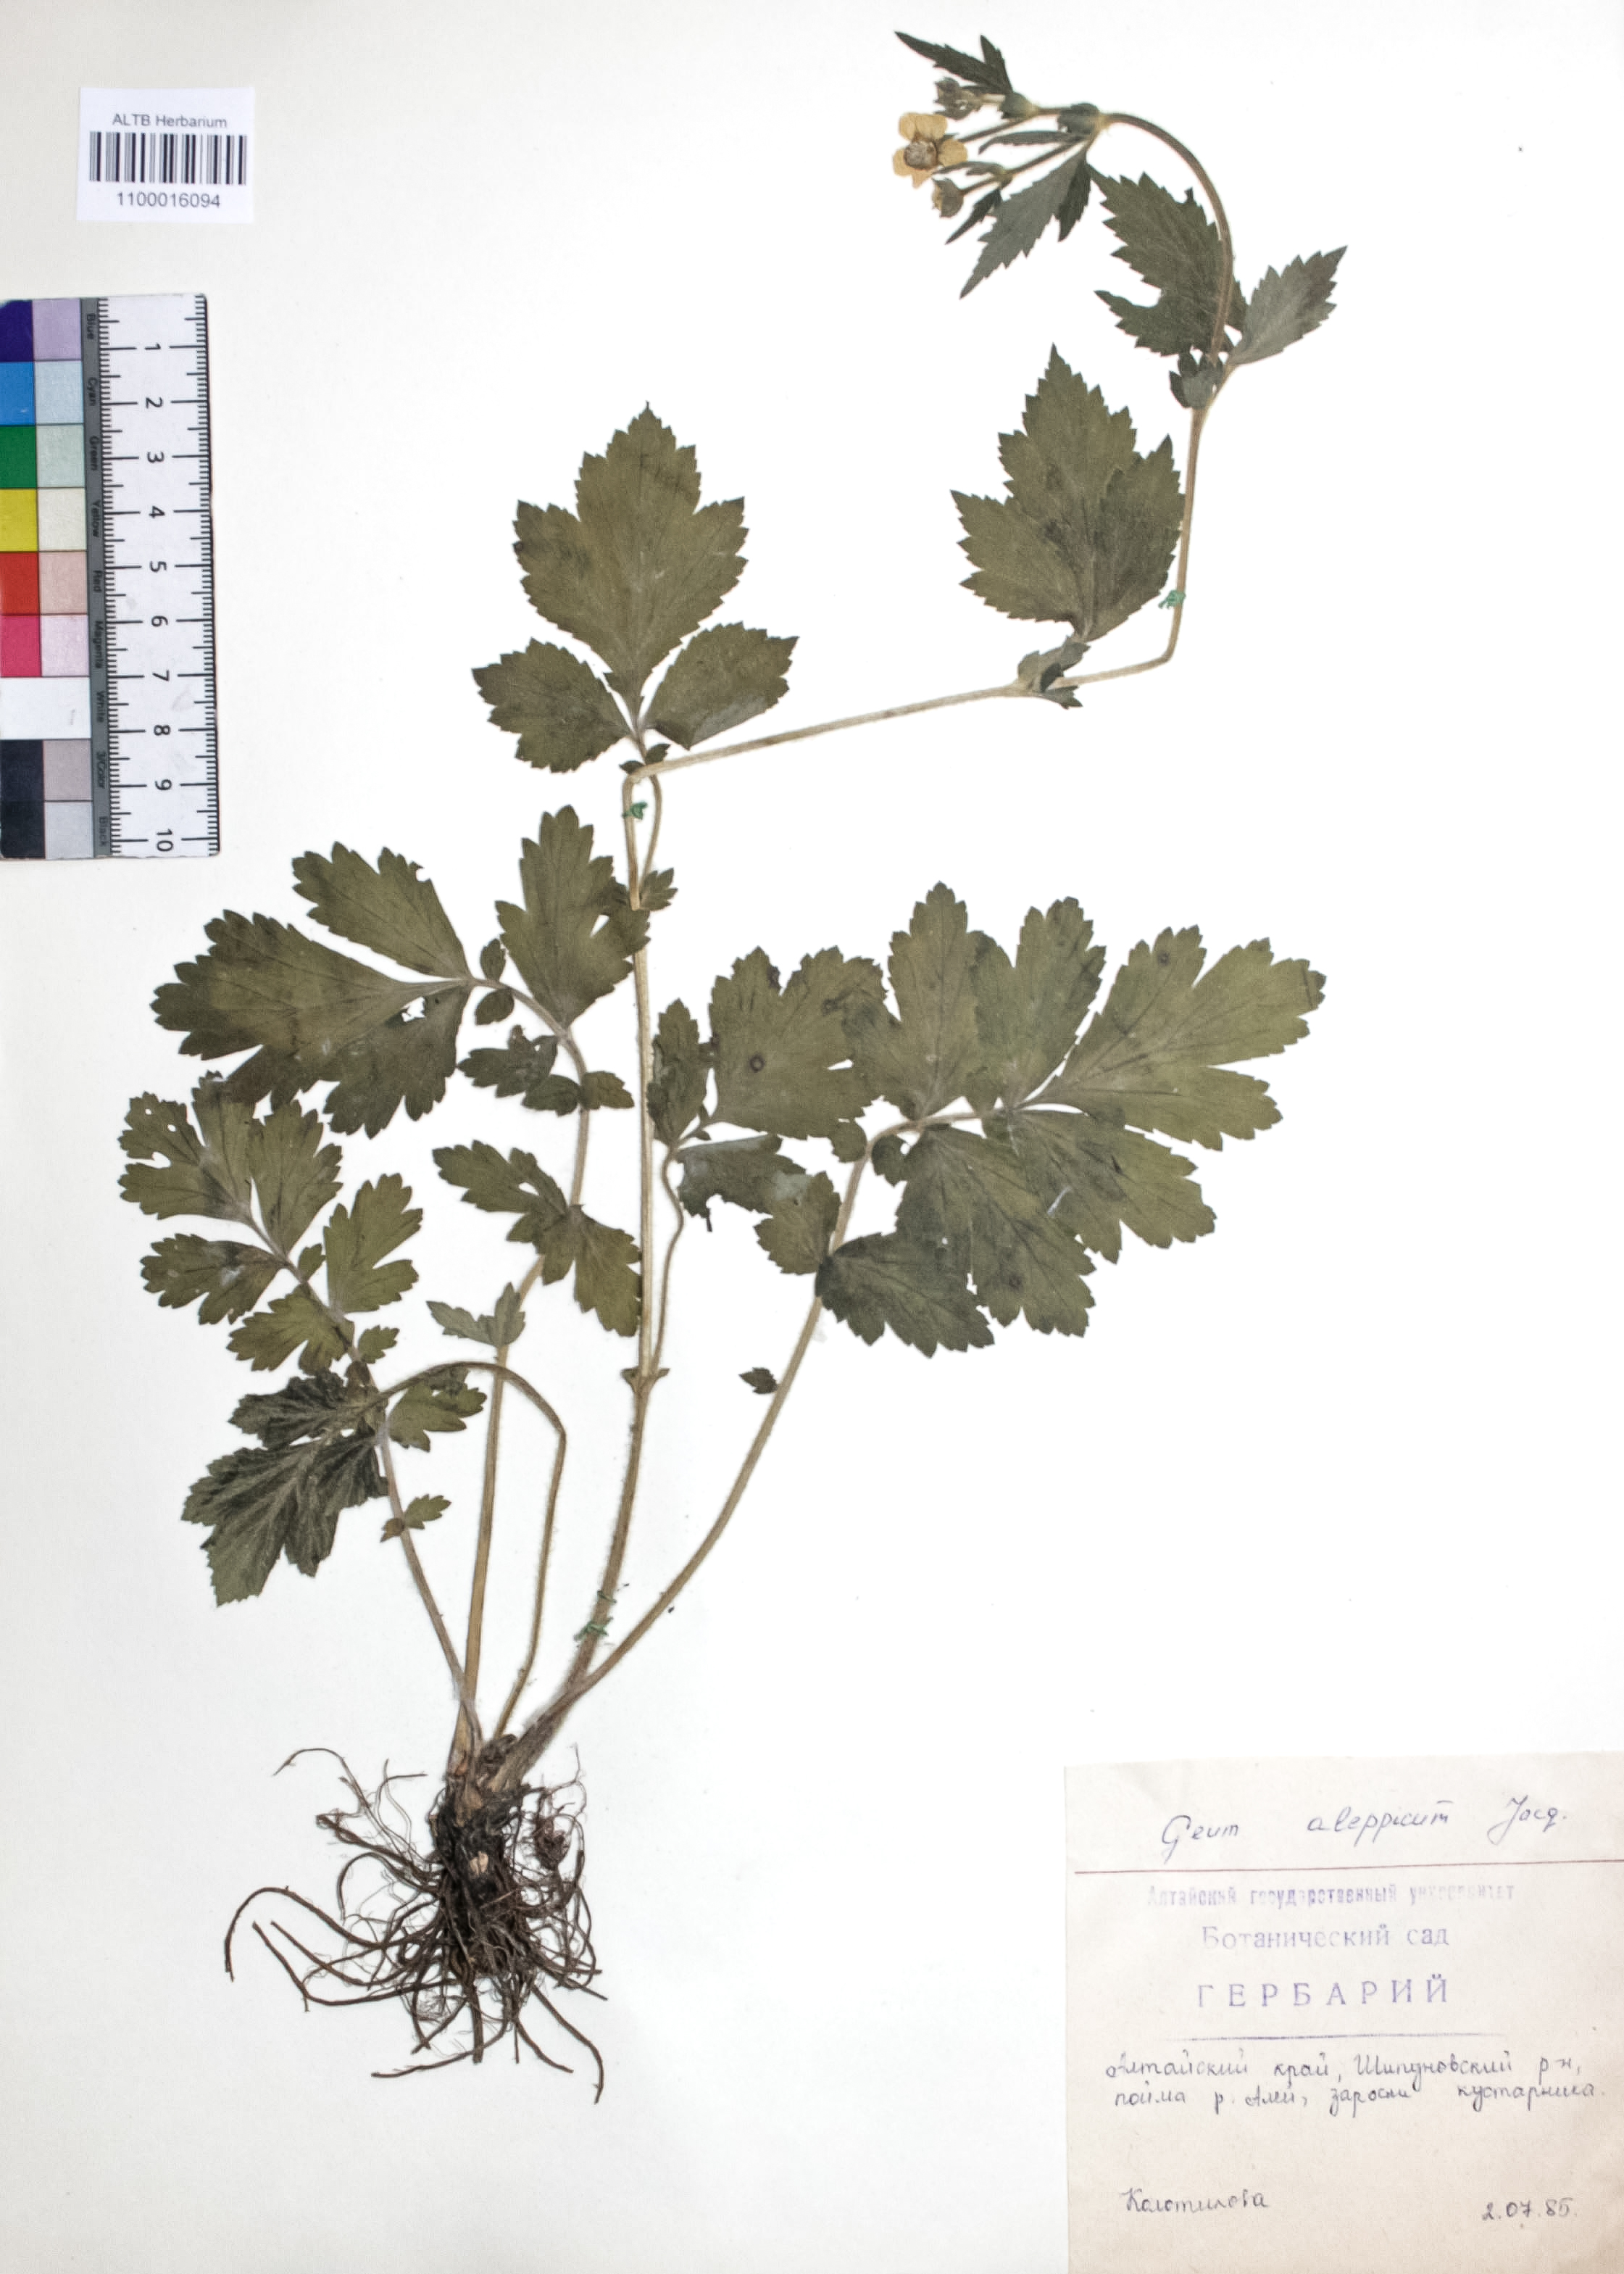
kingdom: Plantae
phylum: Tracheophyta
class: Magnoliopsida
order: Rosales
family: Rosaceae
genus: Geum
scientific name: Geum aleppicum
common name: Yellow avens
